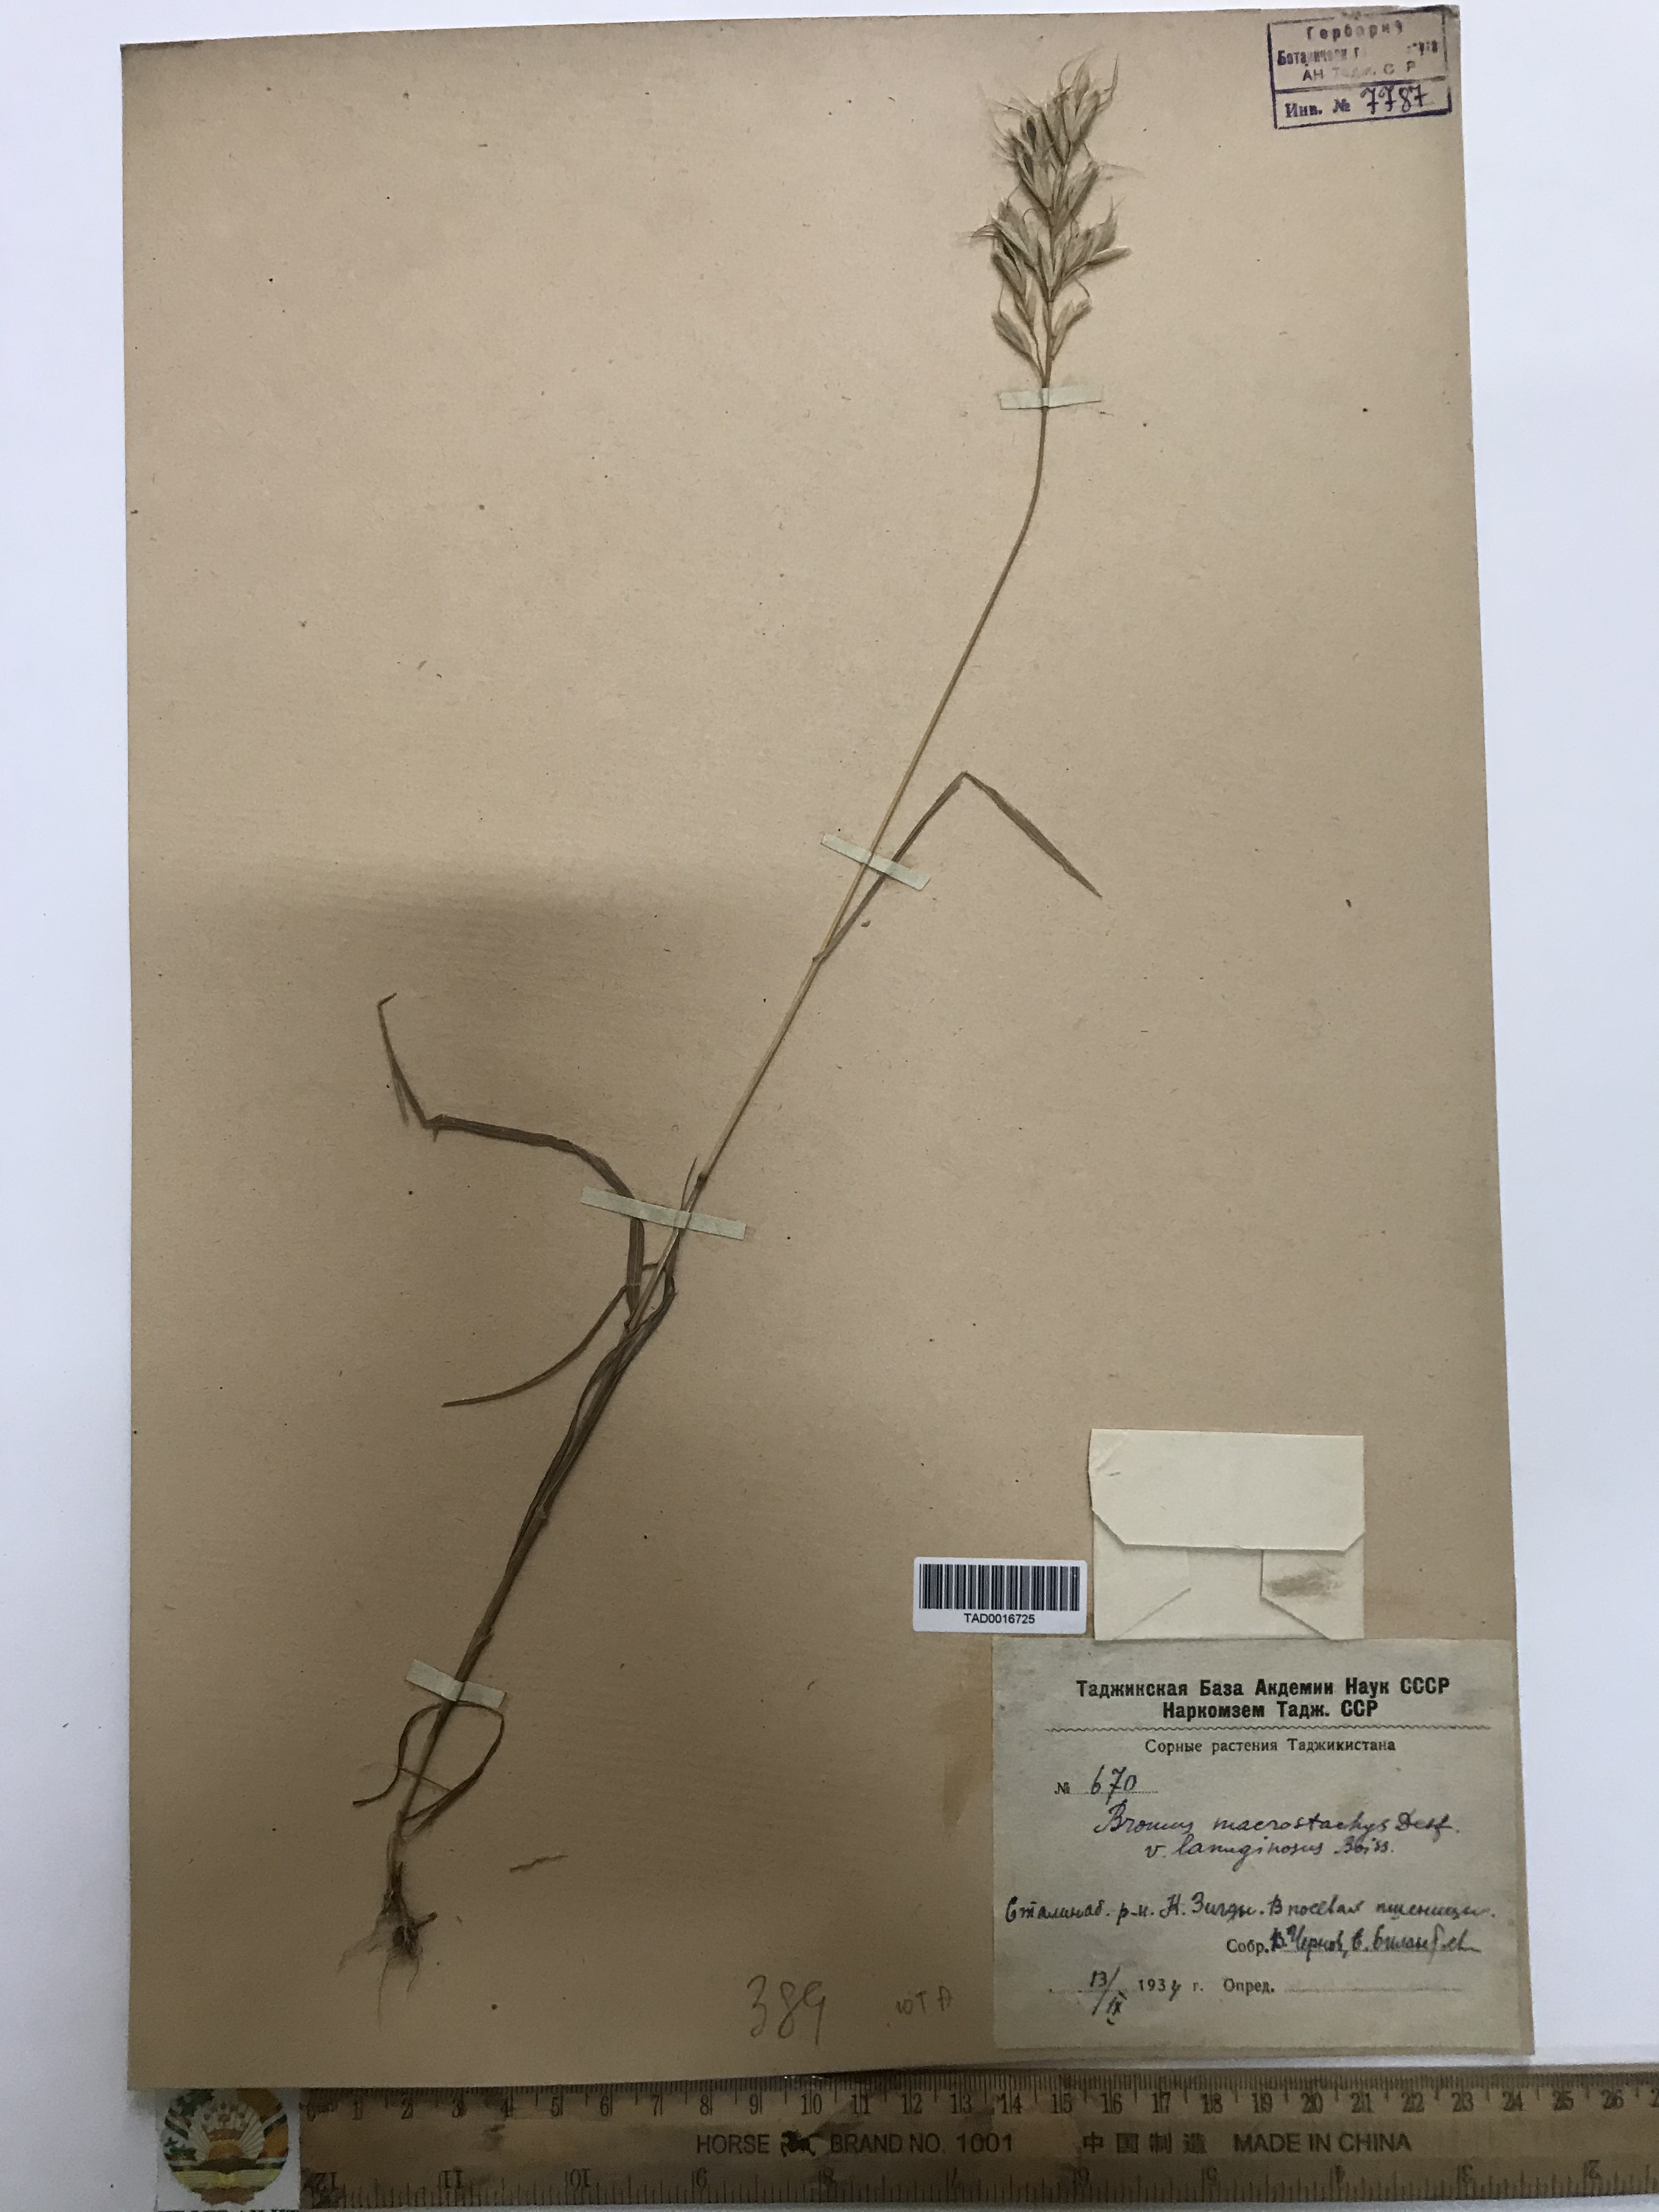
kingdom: Plantae
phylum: Tracheophyta
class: Liliopsida
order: Poales
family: Poaceae
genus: Bromus
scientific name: Bromus lanceolatus
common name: Mediterranean brome
